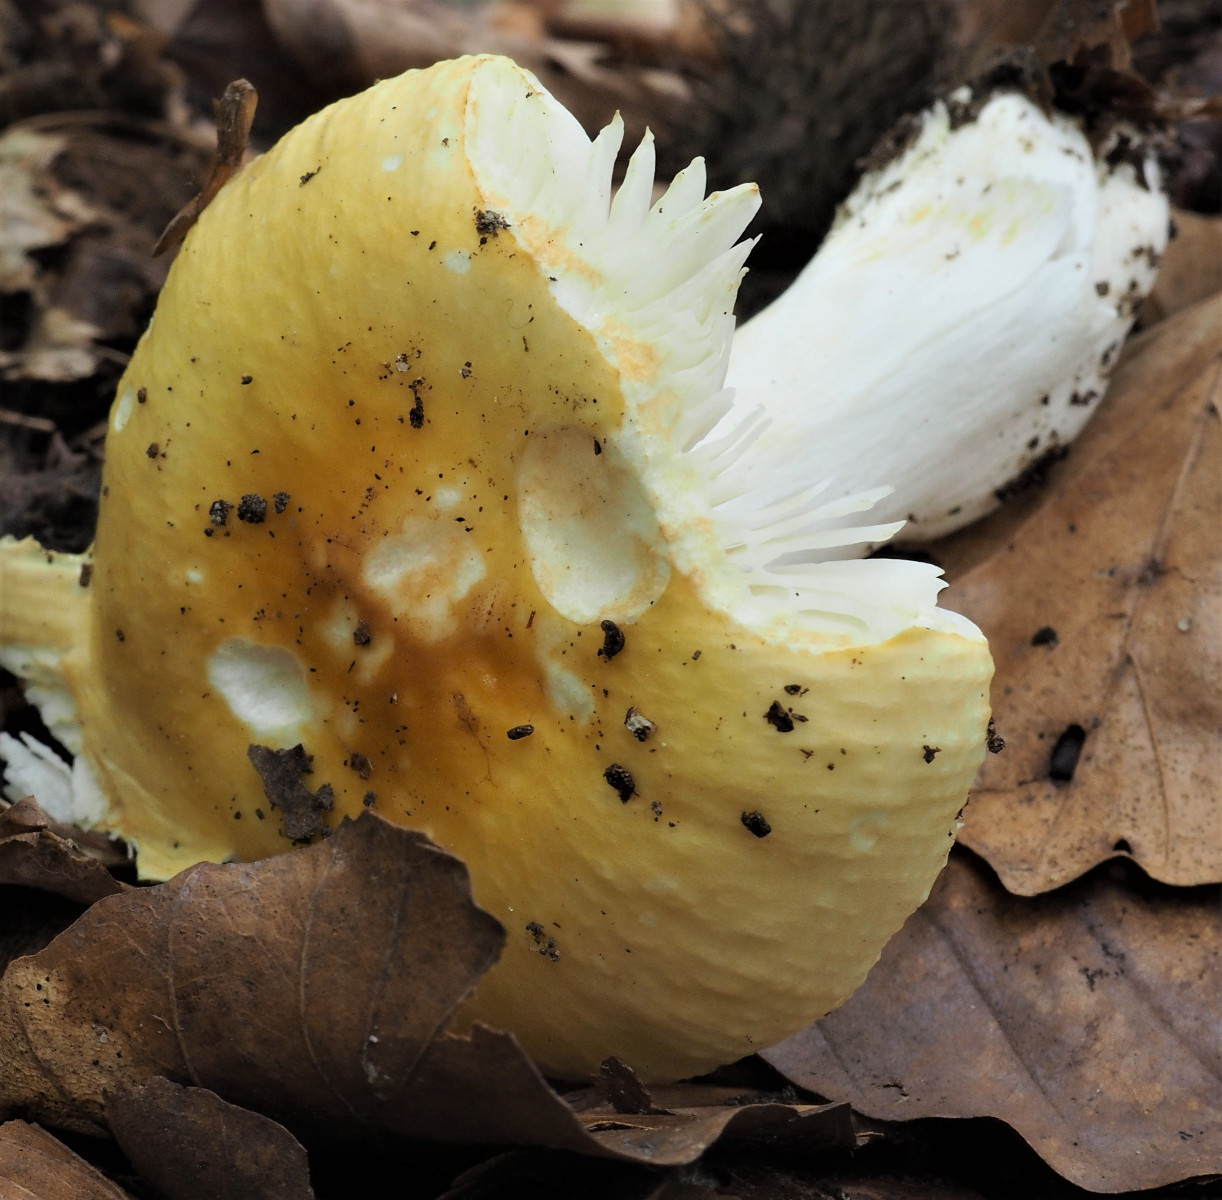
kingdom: Fungi
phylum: Basidiomycota
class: Agaricomycetes
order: Russulales
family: Russulaceae
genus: Russula
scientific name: Russula solaris
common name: sol-skørhat
